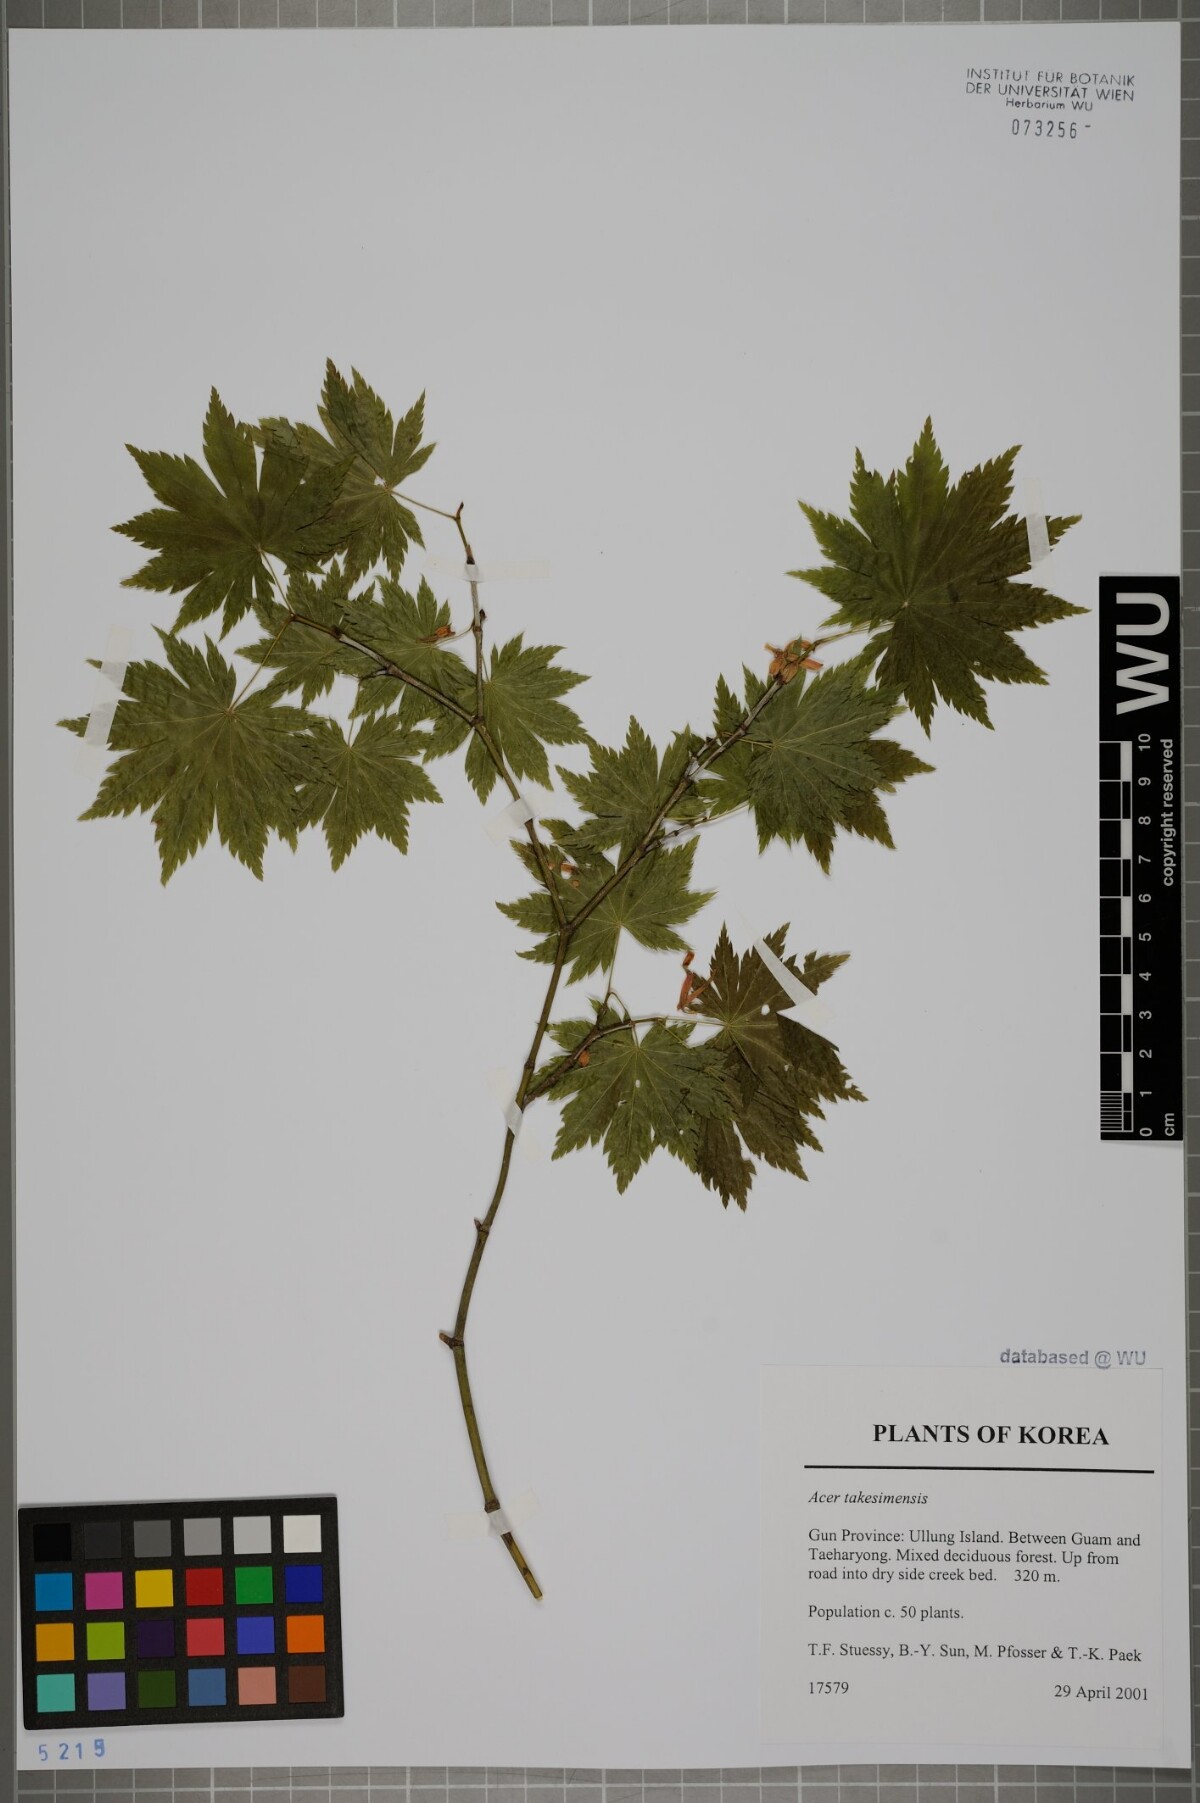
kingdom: Plantae
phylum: Tracheophyta
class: Magnoliopsida
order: Sapindales
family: Sapindaceae
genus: Acer
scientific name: Acer pseudosieboldianum
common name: Korean maple
